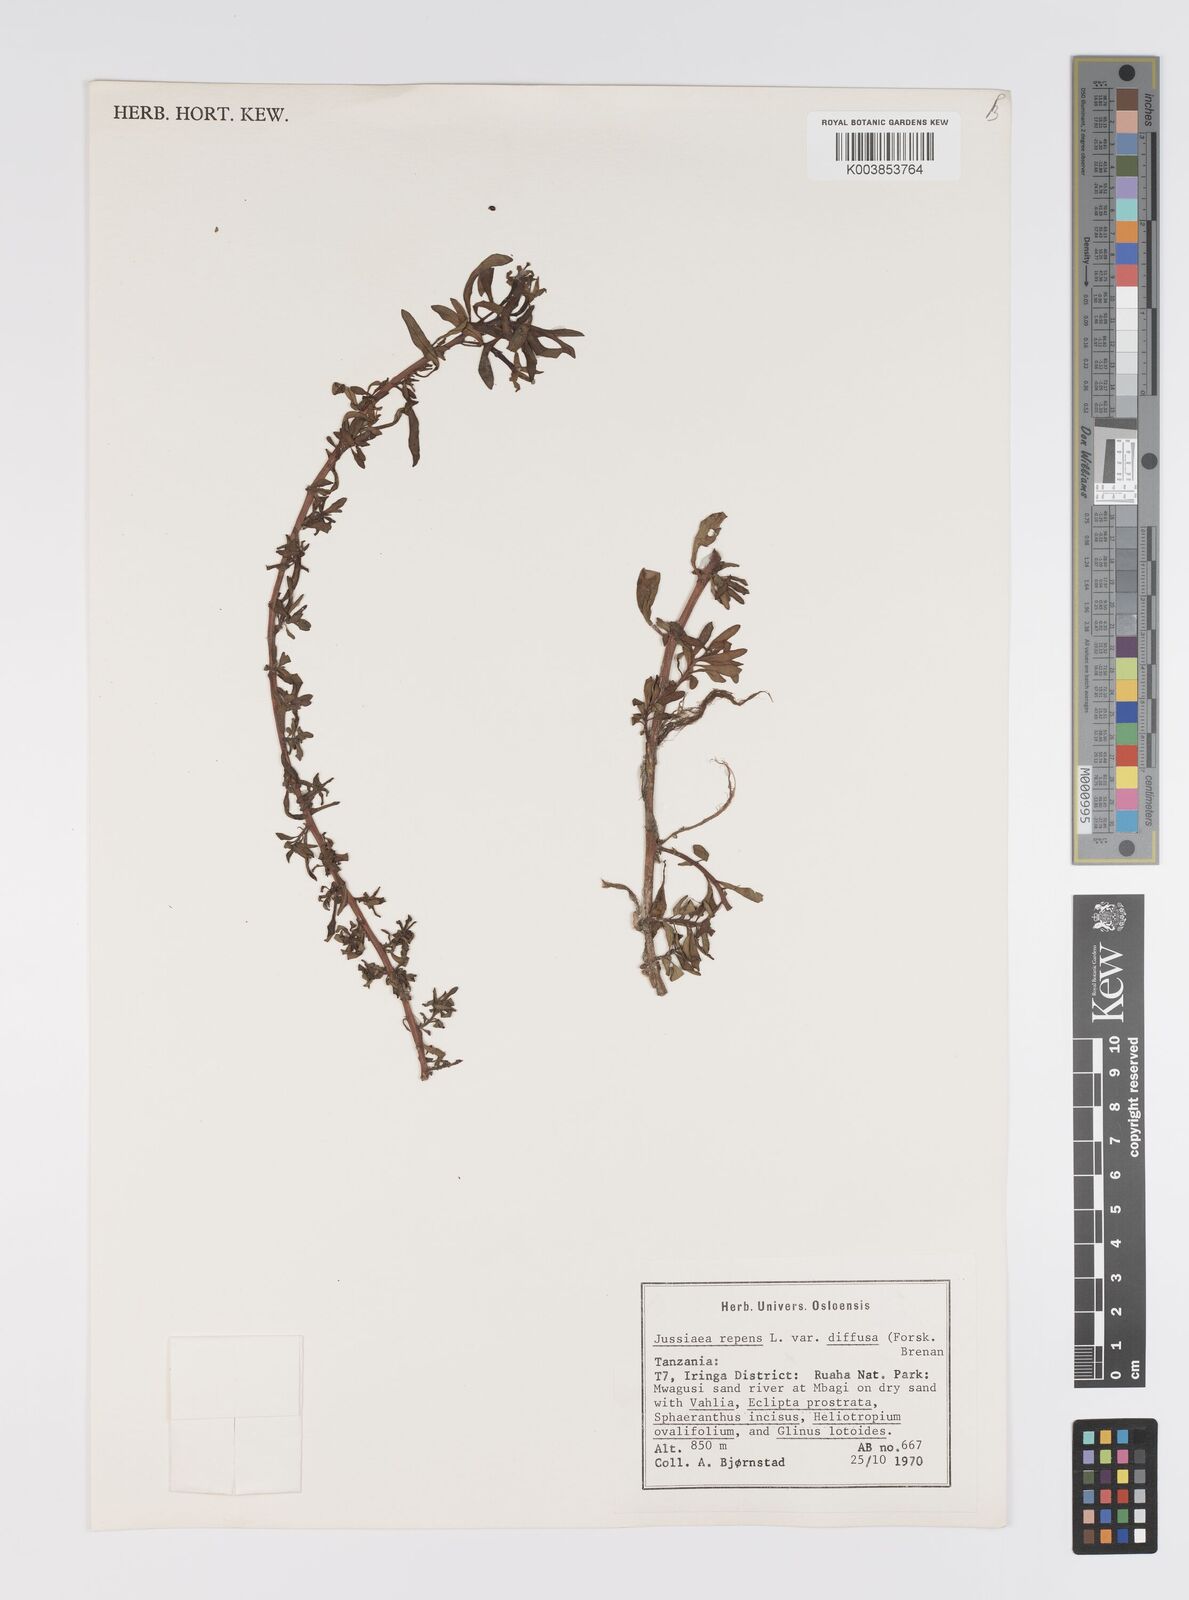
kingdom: Plantae
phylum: Tracheophyta
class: Magnoliopsida
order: Myrtales
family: Onagraceae
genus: Ludwigia
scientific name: Ludwigia repens
